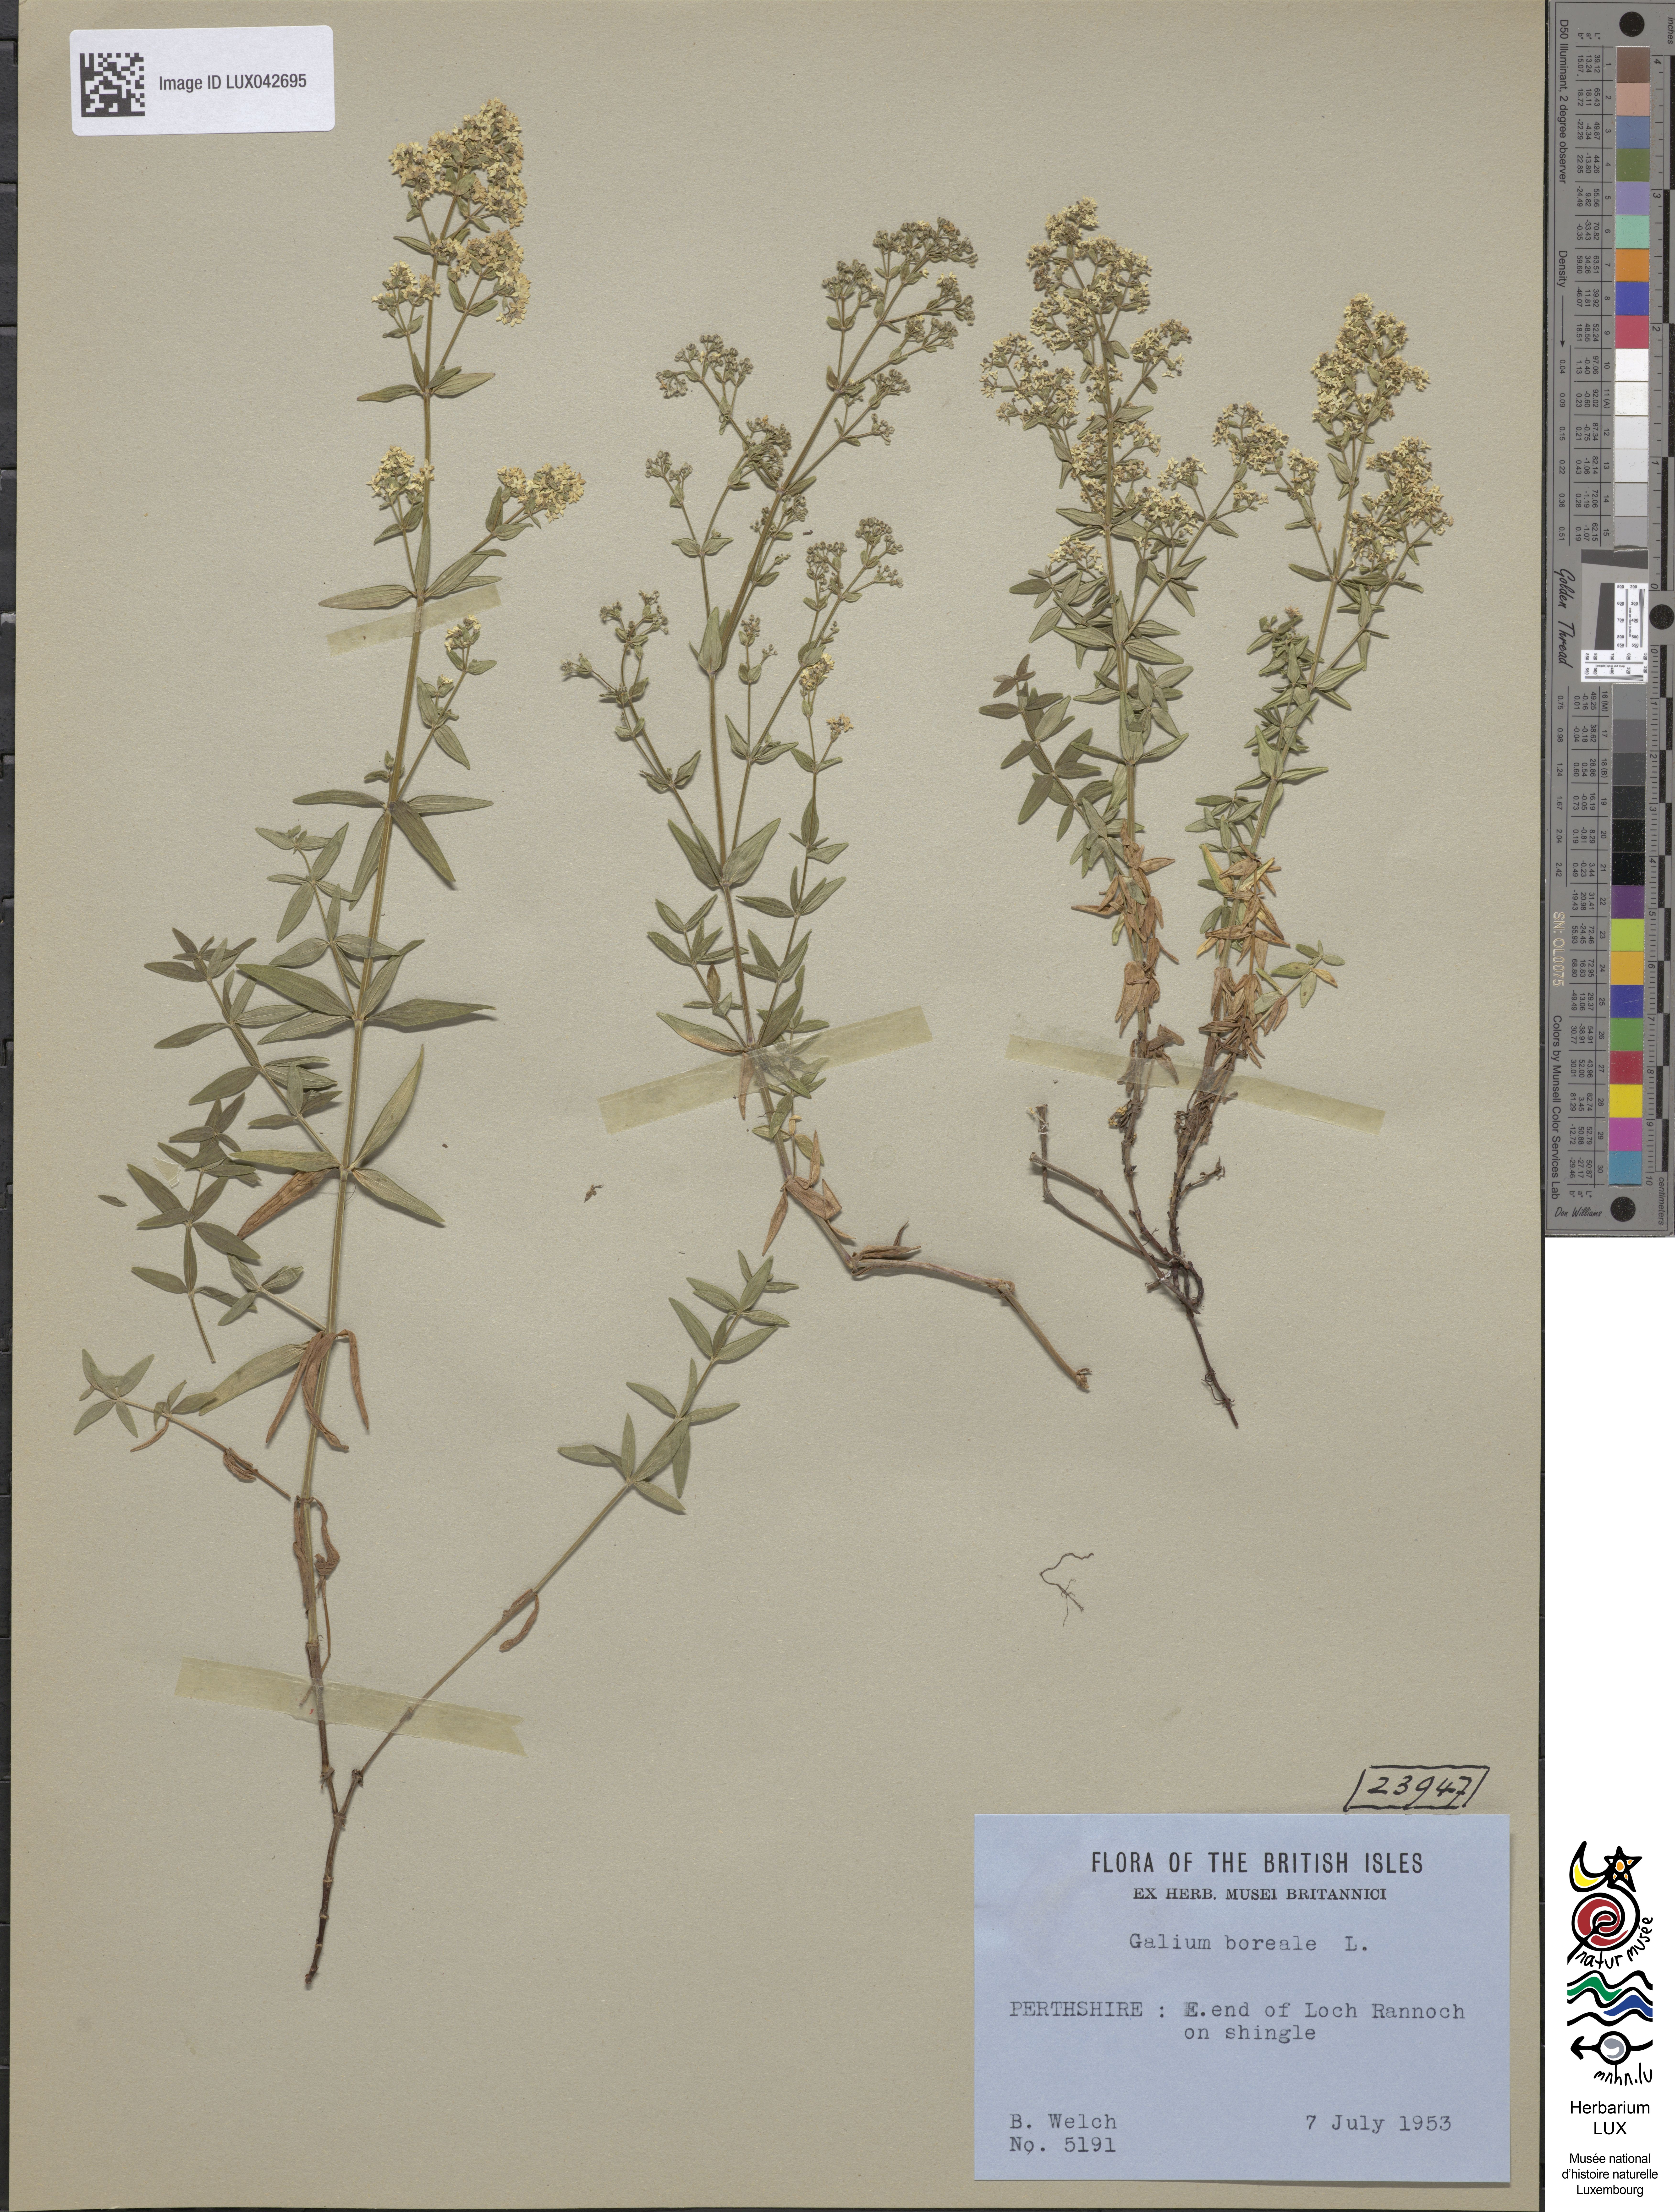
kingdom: Plantae
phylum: Tracheophyta
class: Magnoliopsida
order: Gentianales
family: Rubiaceae
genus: Galium
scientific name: Galium boreale
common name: Northern bedstraw
